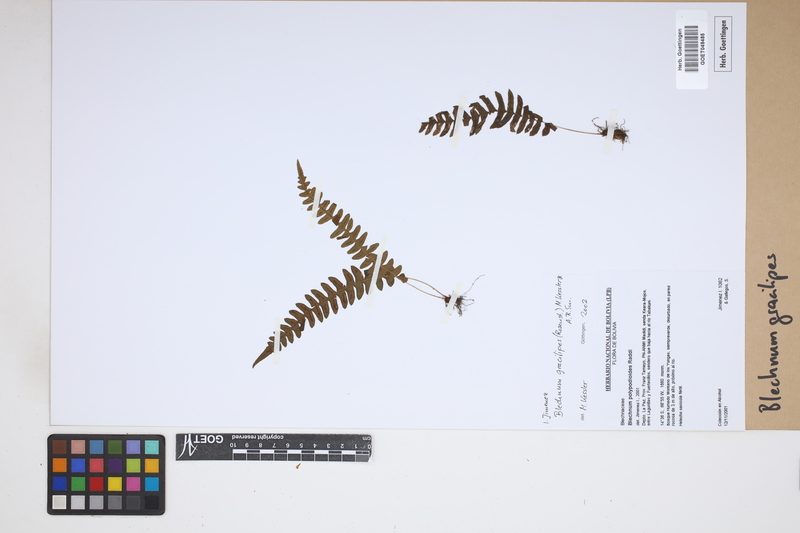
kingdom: Plantae
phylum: Tracheophyta
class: Polypodiopsida
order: Polypodiales
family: Blechnaceae
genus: Blechnum
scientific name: Blechnum gracilipes
